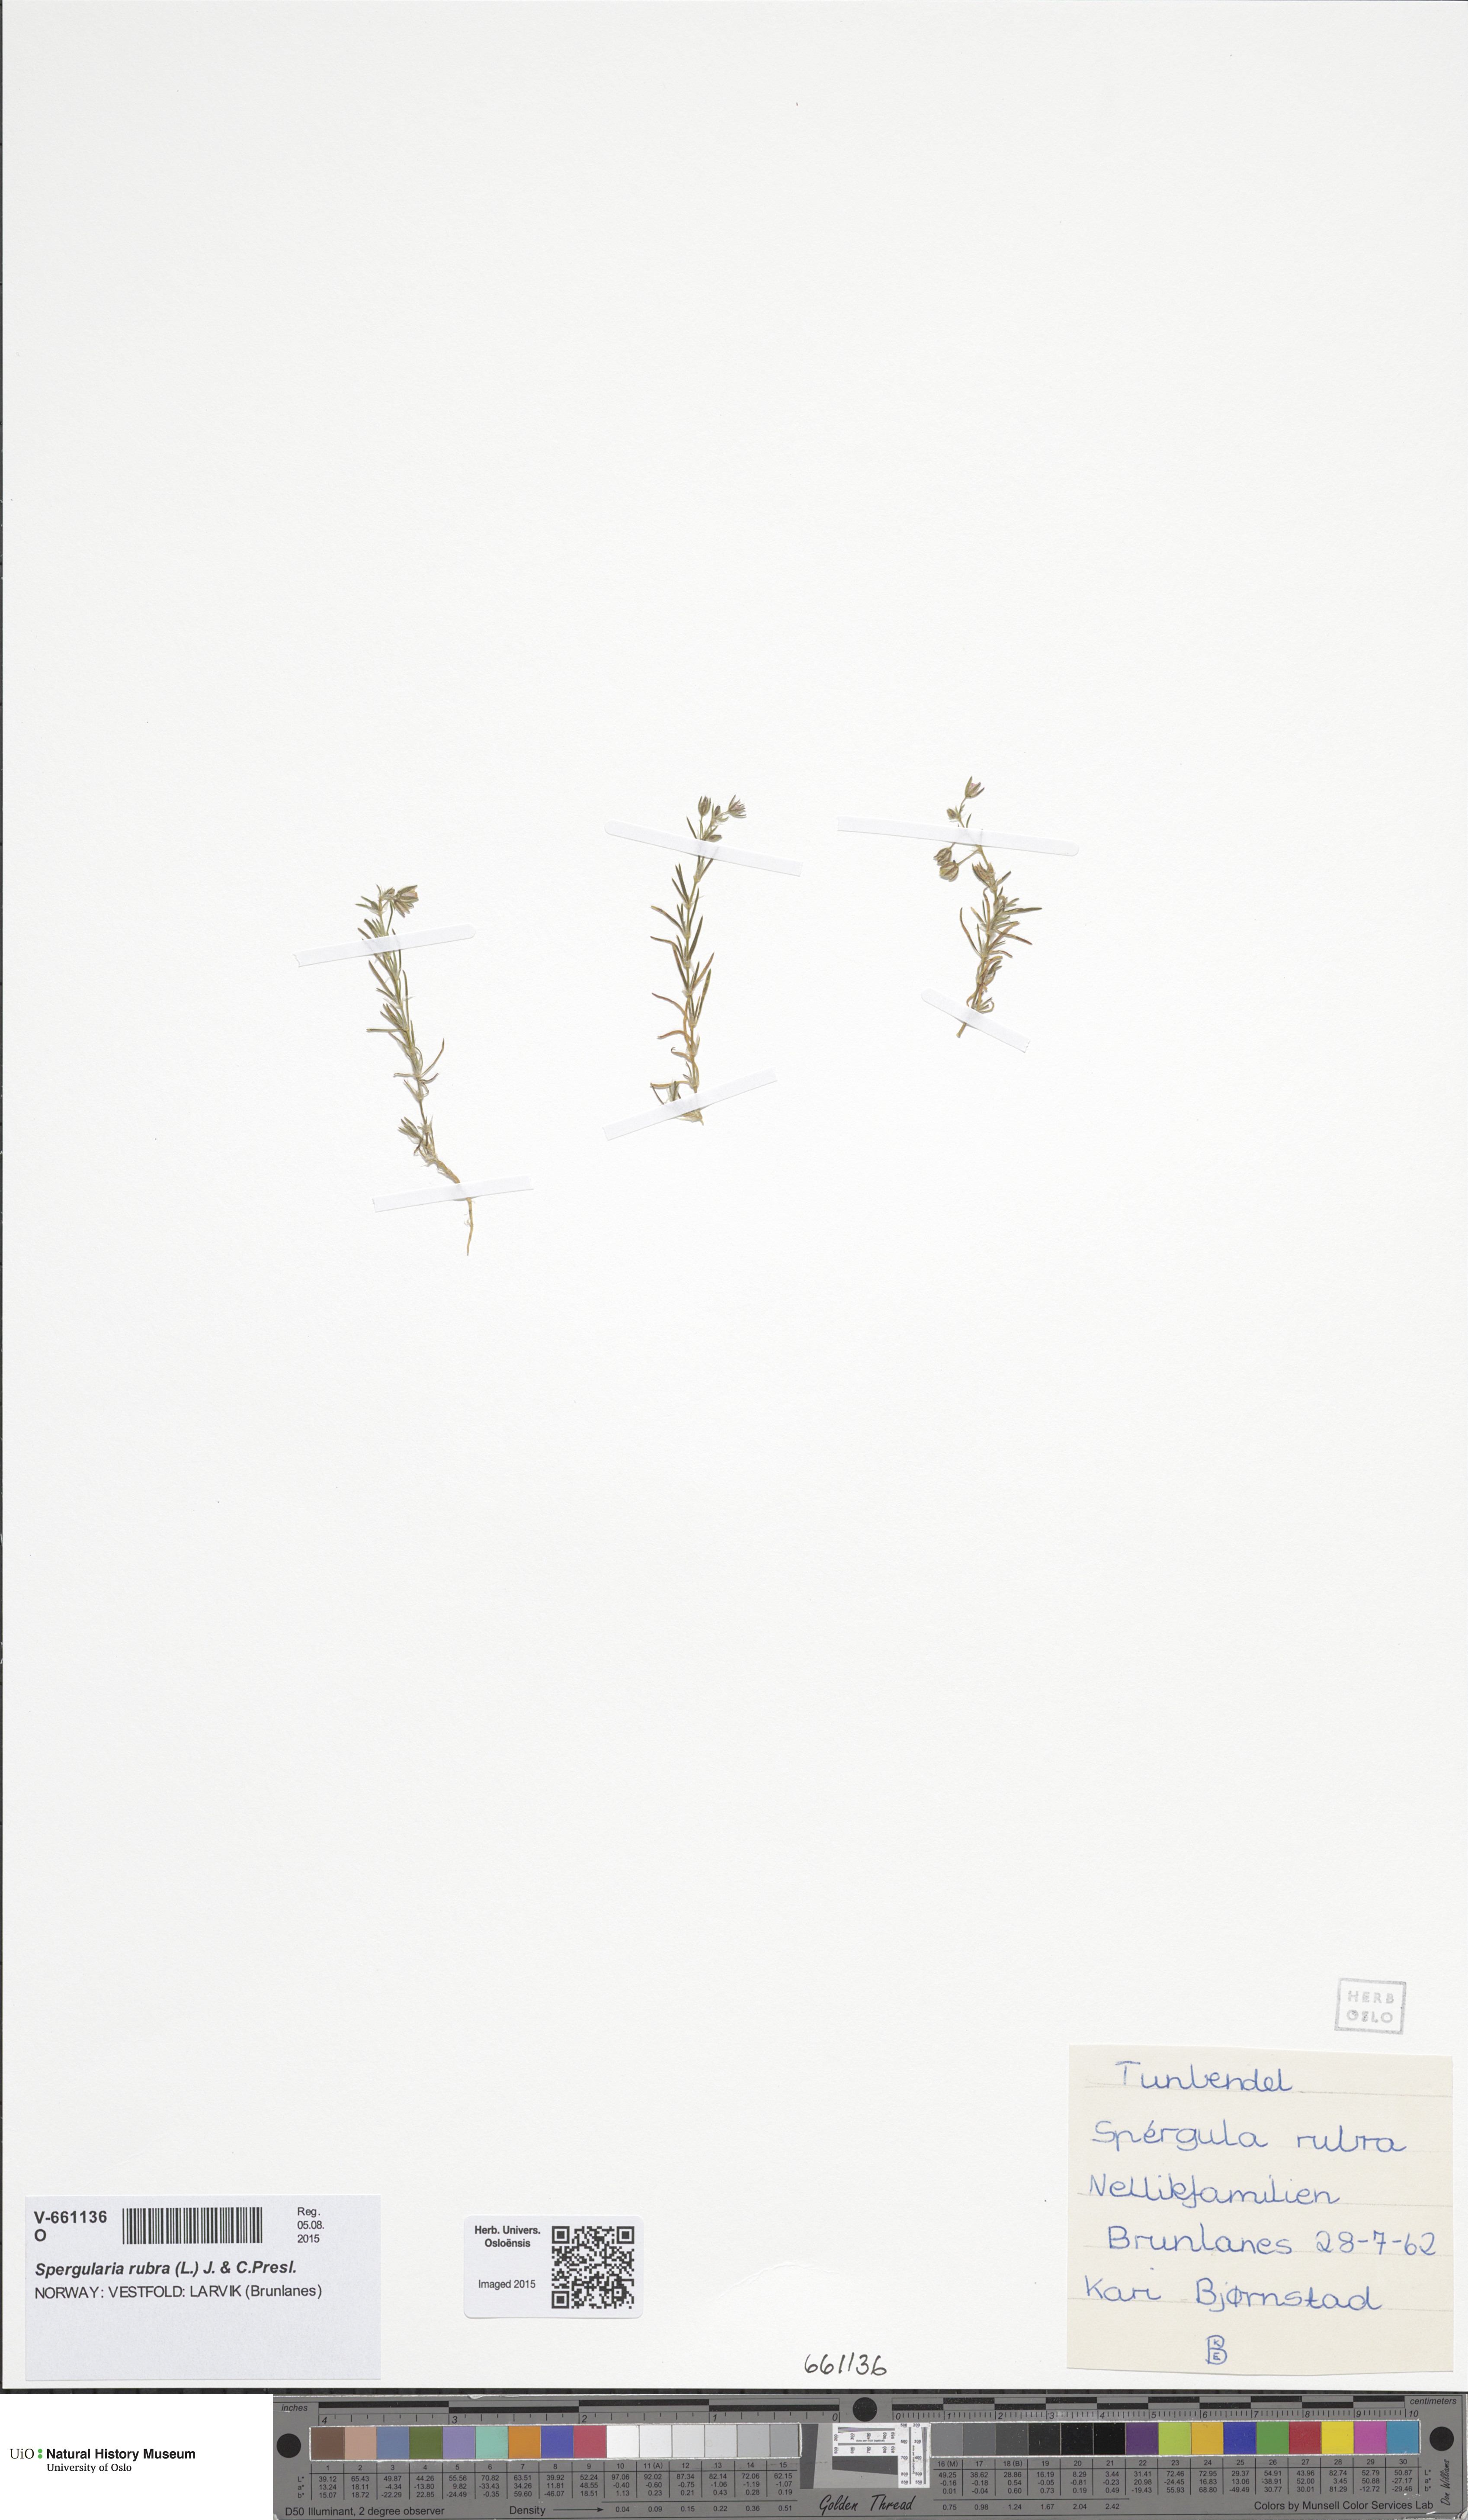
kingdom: Plantae
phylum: Tracheophyta
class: Magnoliopsida
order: Caryophyllales
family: Caryophyllaceae
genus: Spergularia
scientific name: Spergularia rubra
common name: Red sand-spurrey
